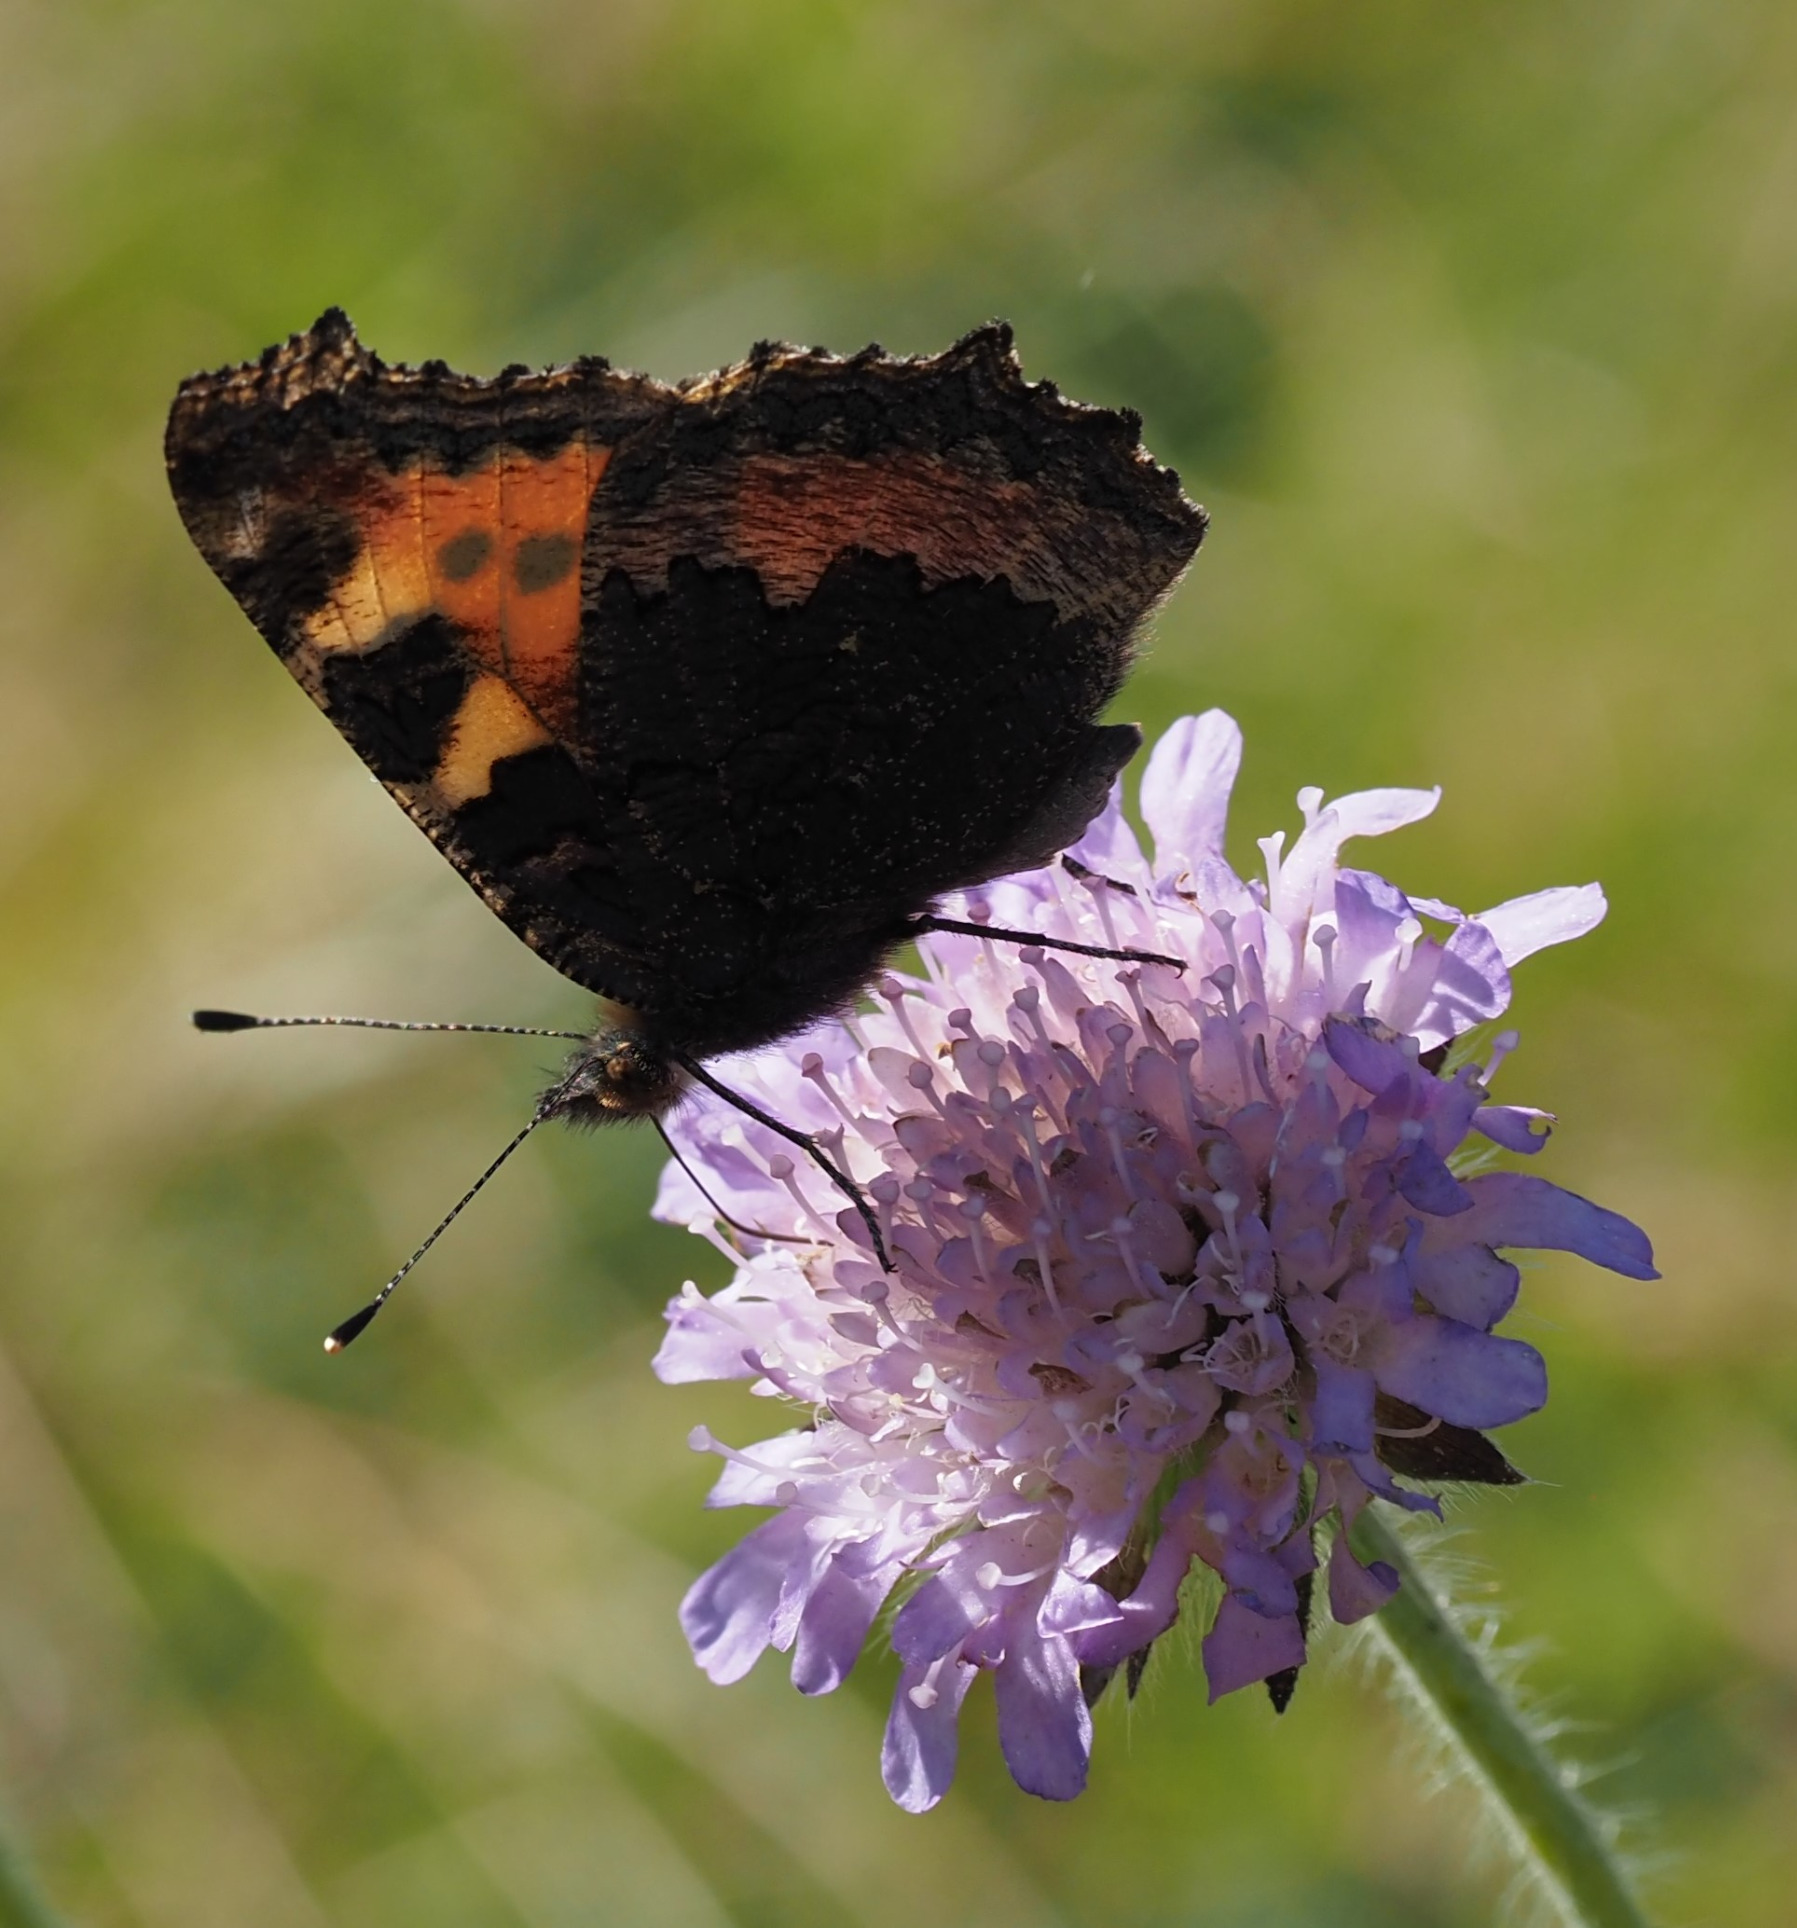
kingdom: Animalia
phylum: Arthropoda
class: Insecta
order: Lepidoptera
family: Nymphalidae
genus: Aglais
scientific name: Aglais urticae
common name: Nældens takvinge
